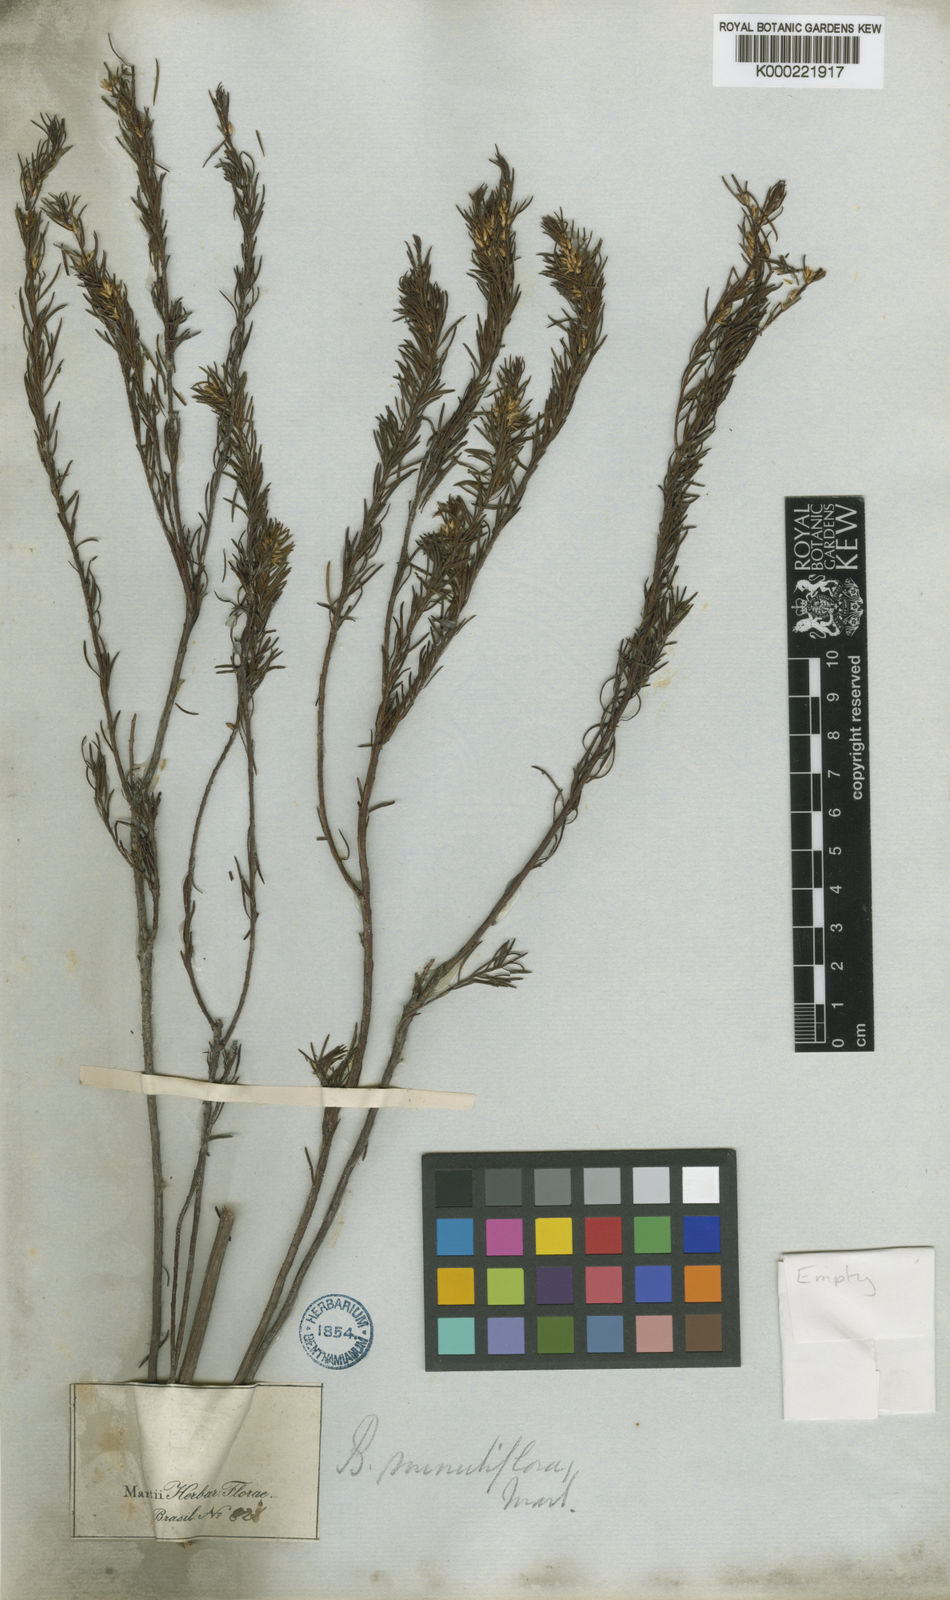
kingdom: Plantae
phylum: Tracheophyta
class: Magnoliopsida
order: Asterales
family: Asteraceae
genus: Baccharis
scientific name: Baccharis minutiflora
